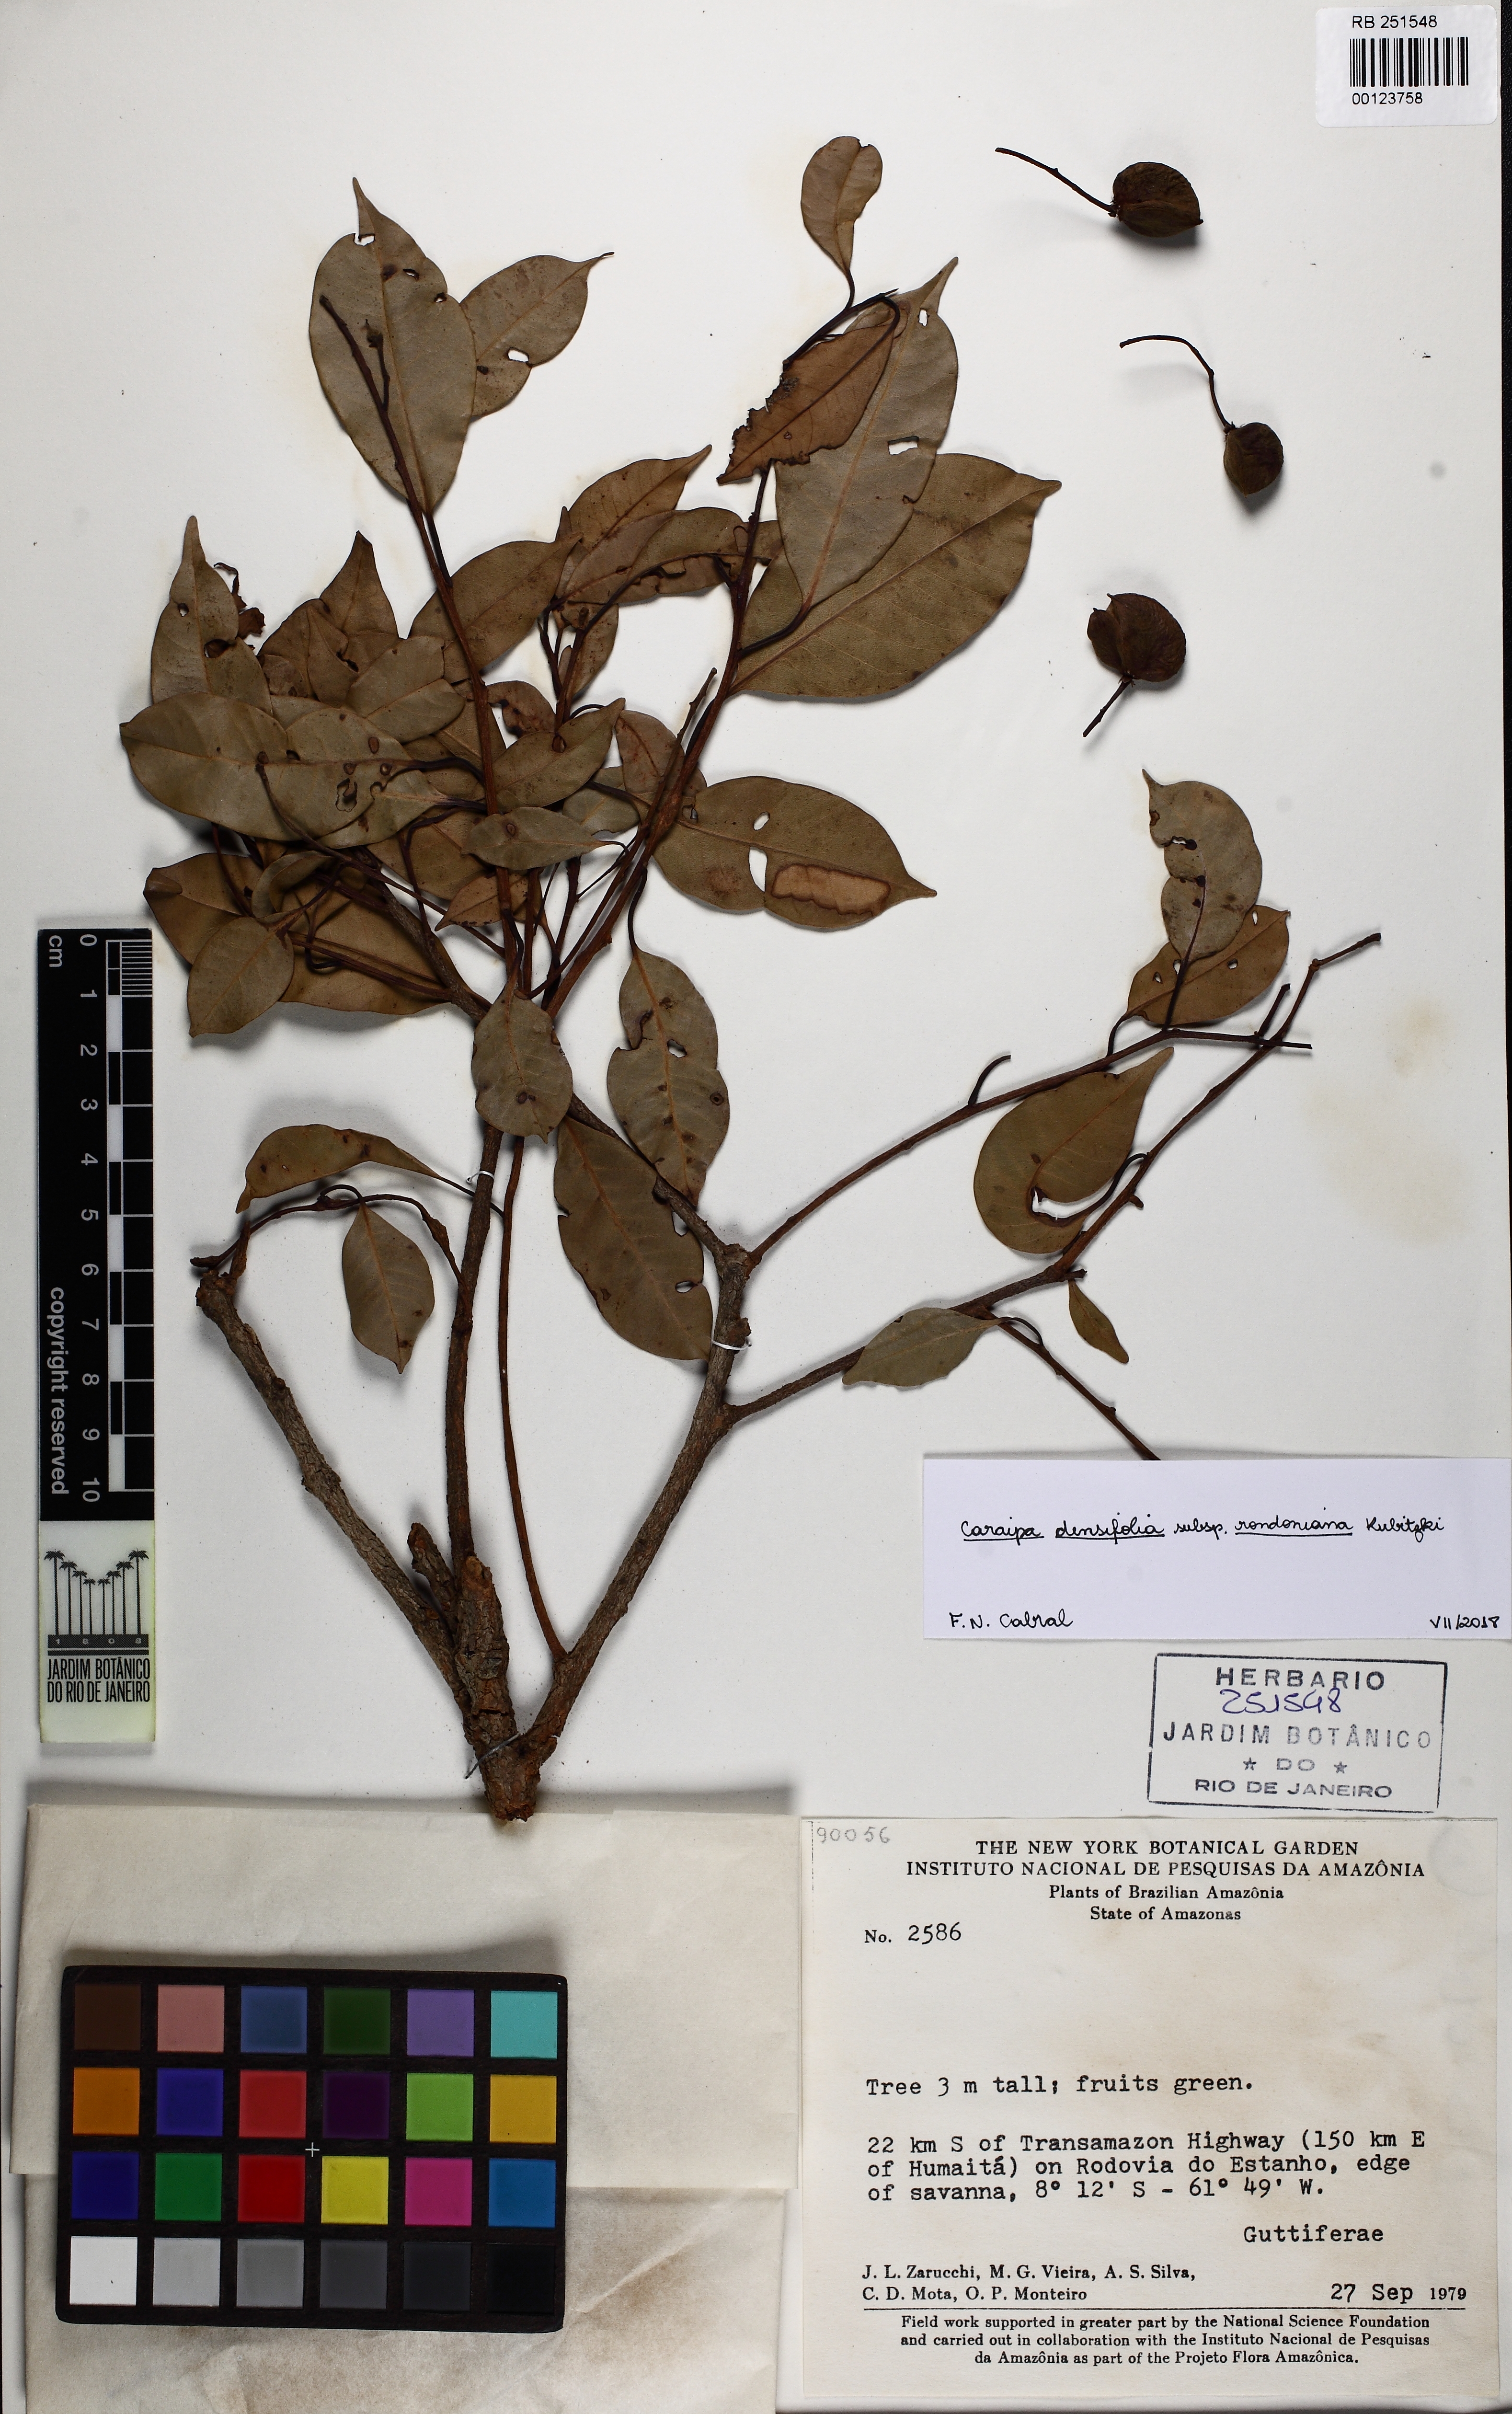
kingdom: Plantae
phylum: Tracheophyta
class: Magnoliopsida
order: Malpighiales
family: Calophyllaceae
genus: Caraipa
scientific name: Caraipa densifolia
